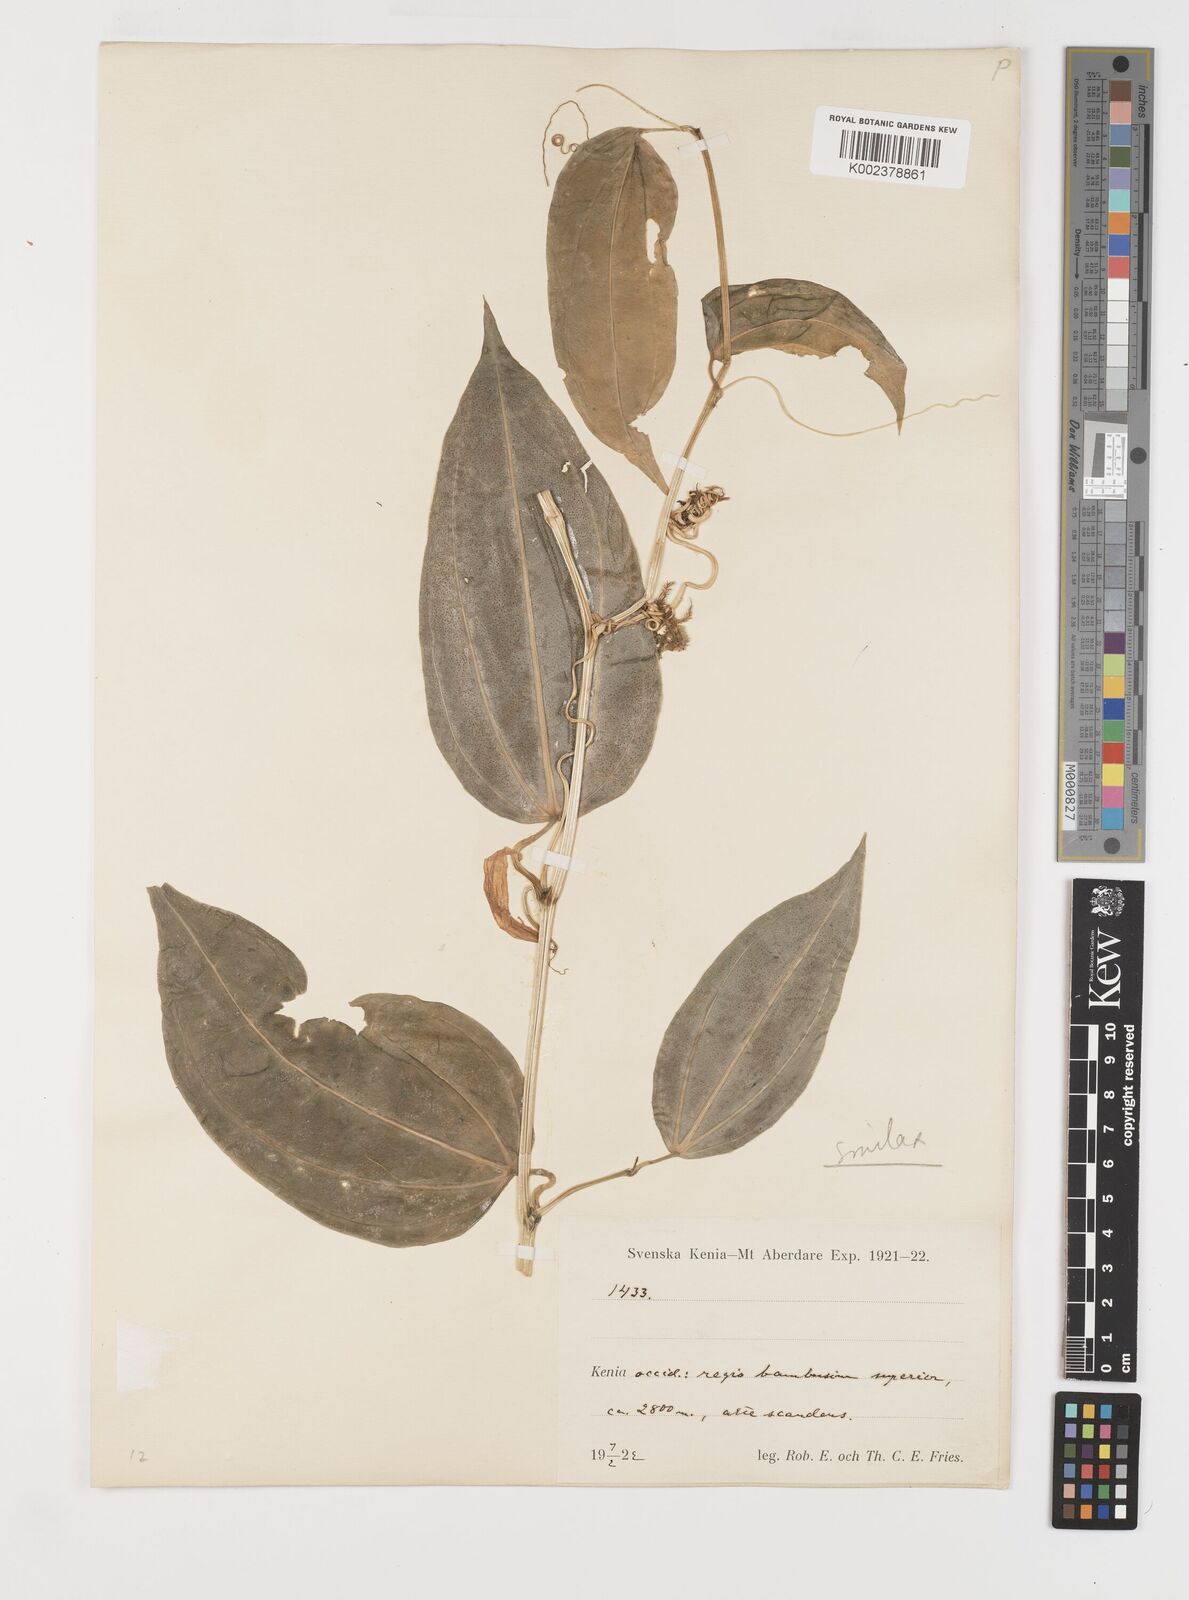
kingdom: Plantae
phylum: Tracheophyta
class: Liliopsida
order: Liliales
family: Smilacaceae
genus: Smilax
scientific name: Smilax anceps
